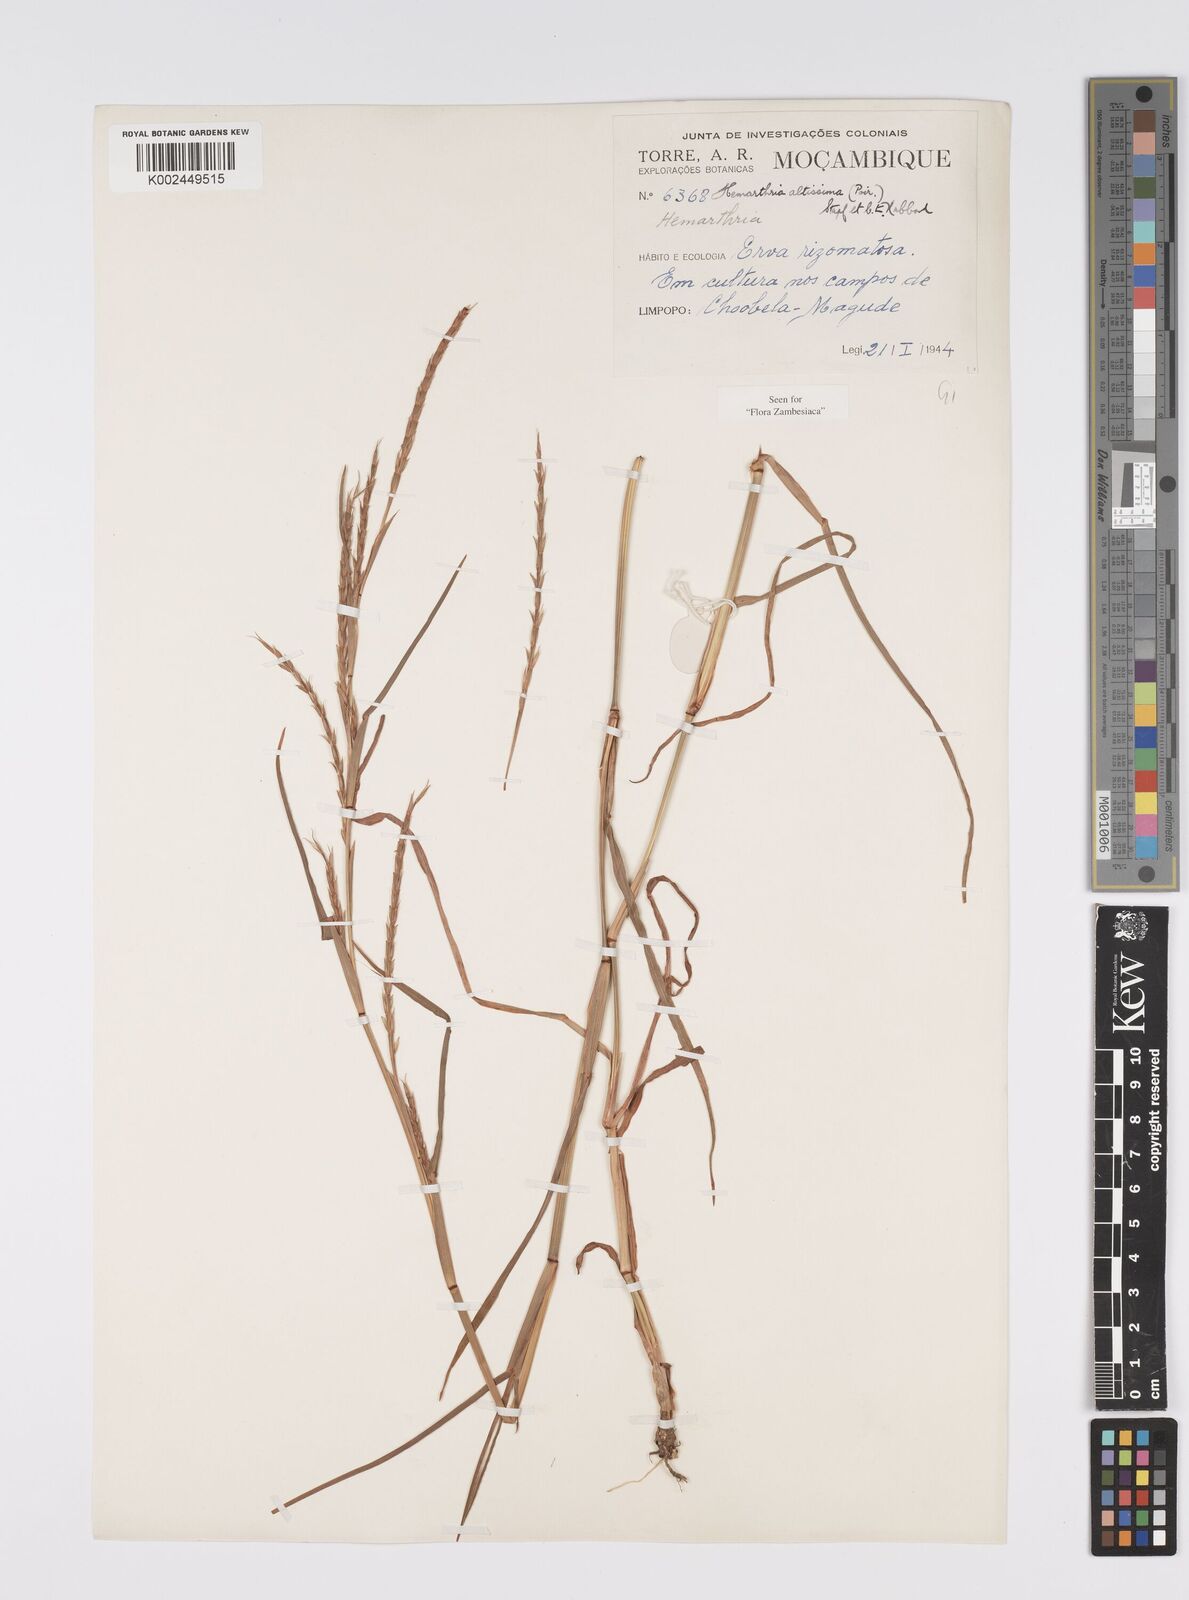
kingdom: Plantae
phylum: Tracheophyta
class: Liliopsida
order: Poales
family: Poaceae
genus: Hemarthria
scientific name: Hemarthria altissima
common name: African jointgrass
